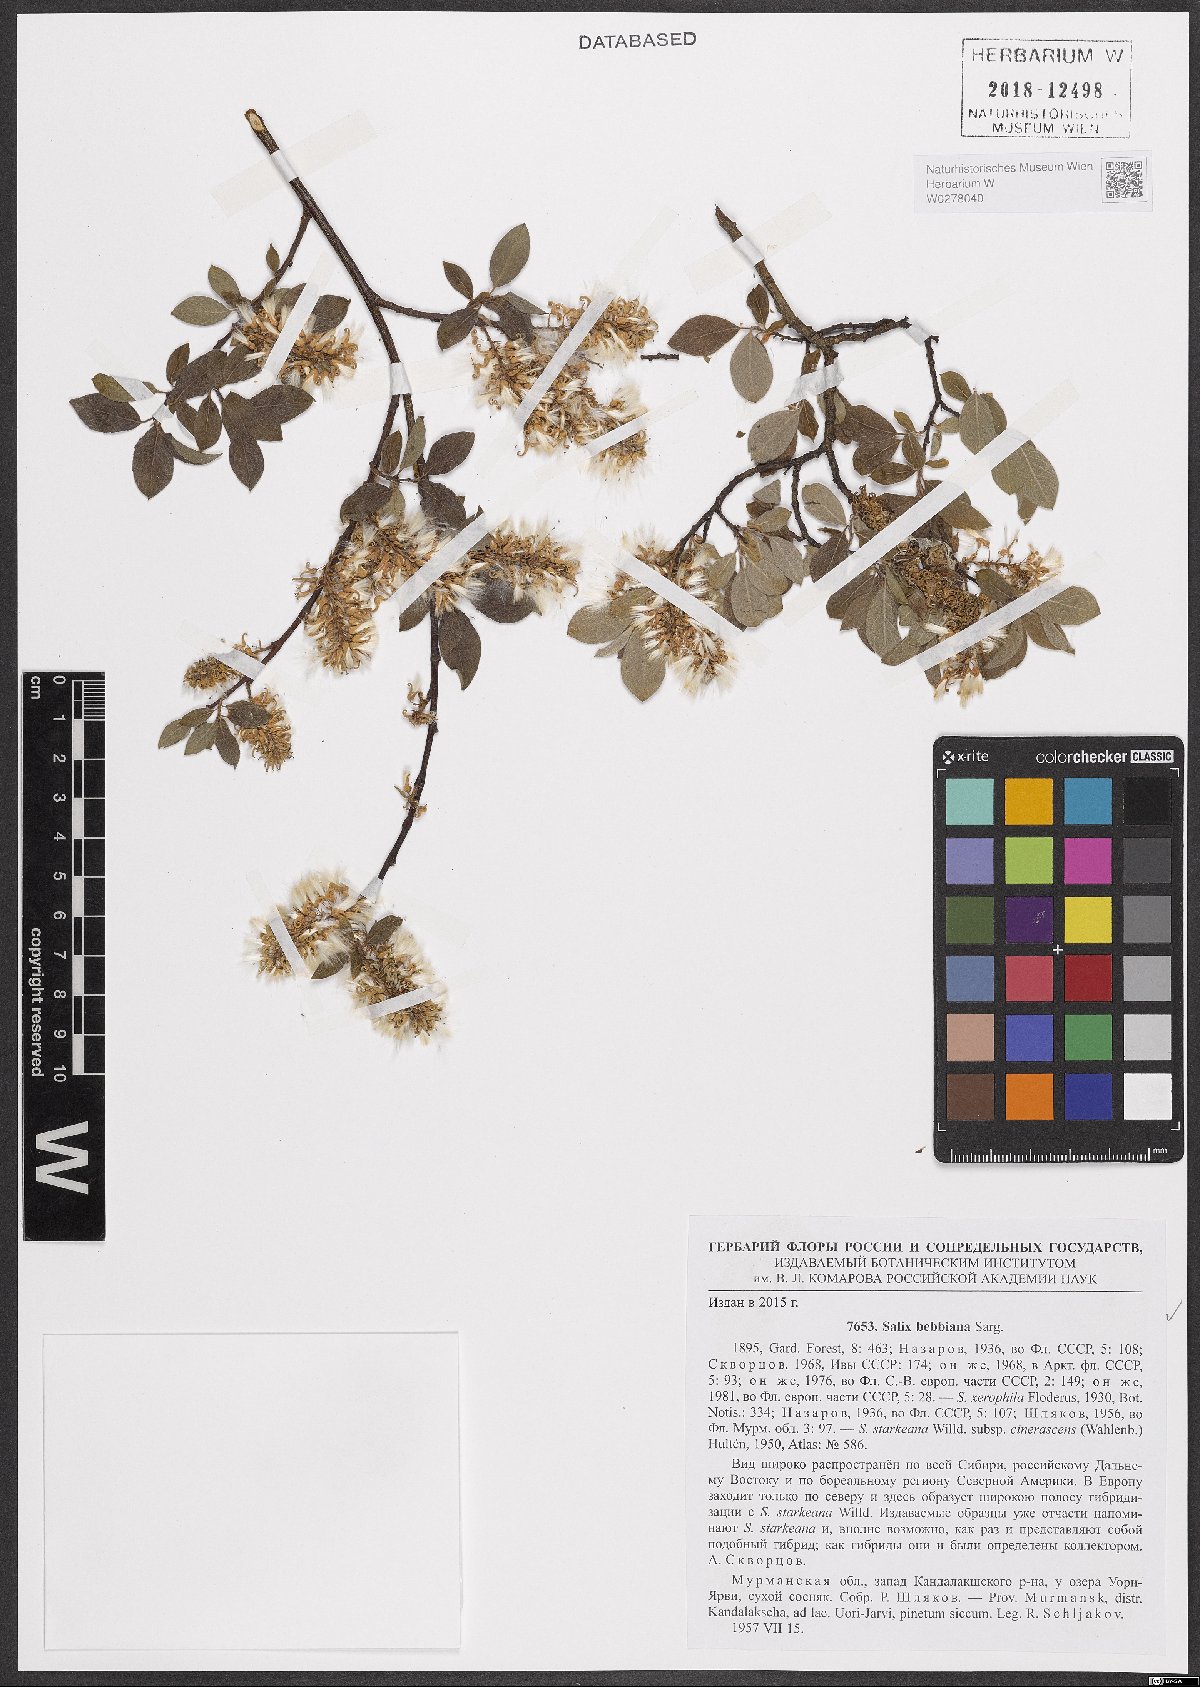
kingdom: Plantae
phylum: Tracheophyta
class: Magnoliopsida
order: Malpighiales
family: Salicaceae
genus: Salix
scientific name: Salix bebbiana
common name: Bebb's willow
